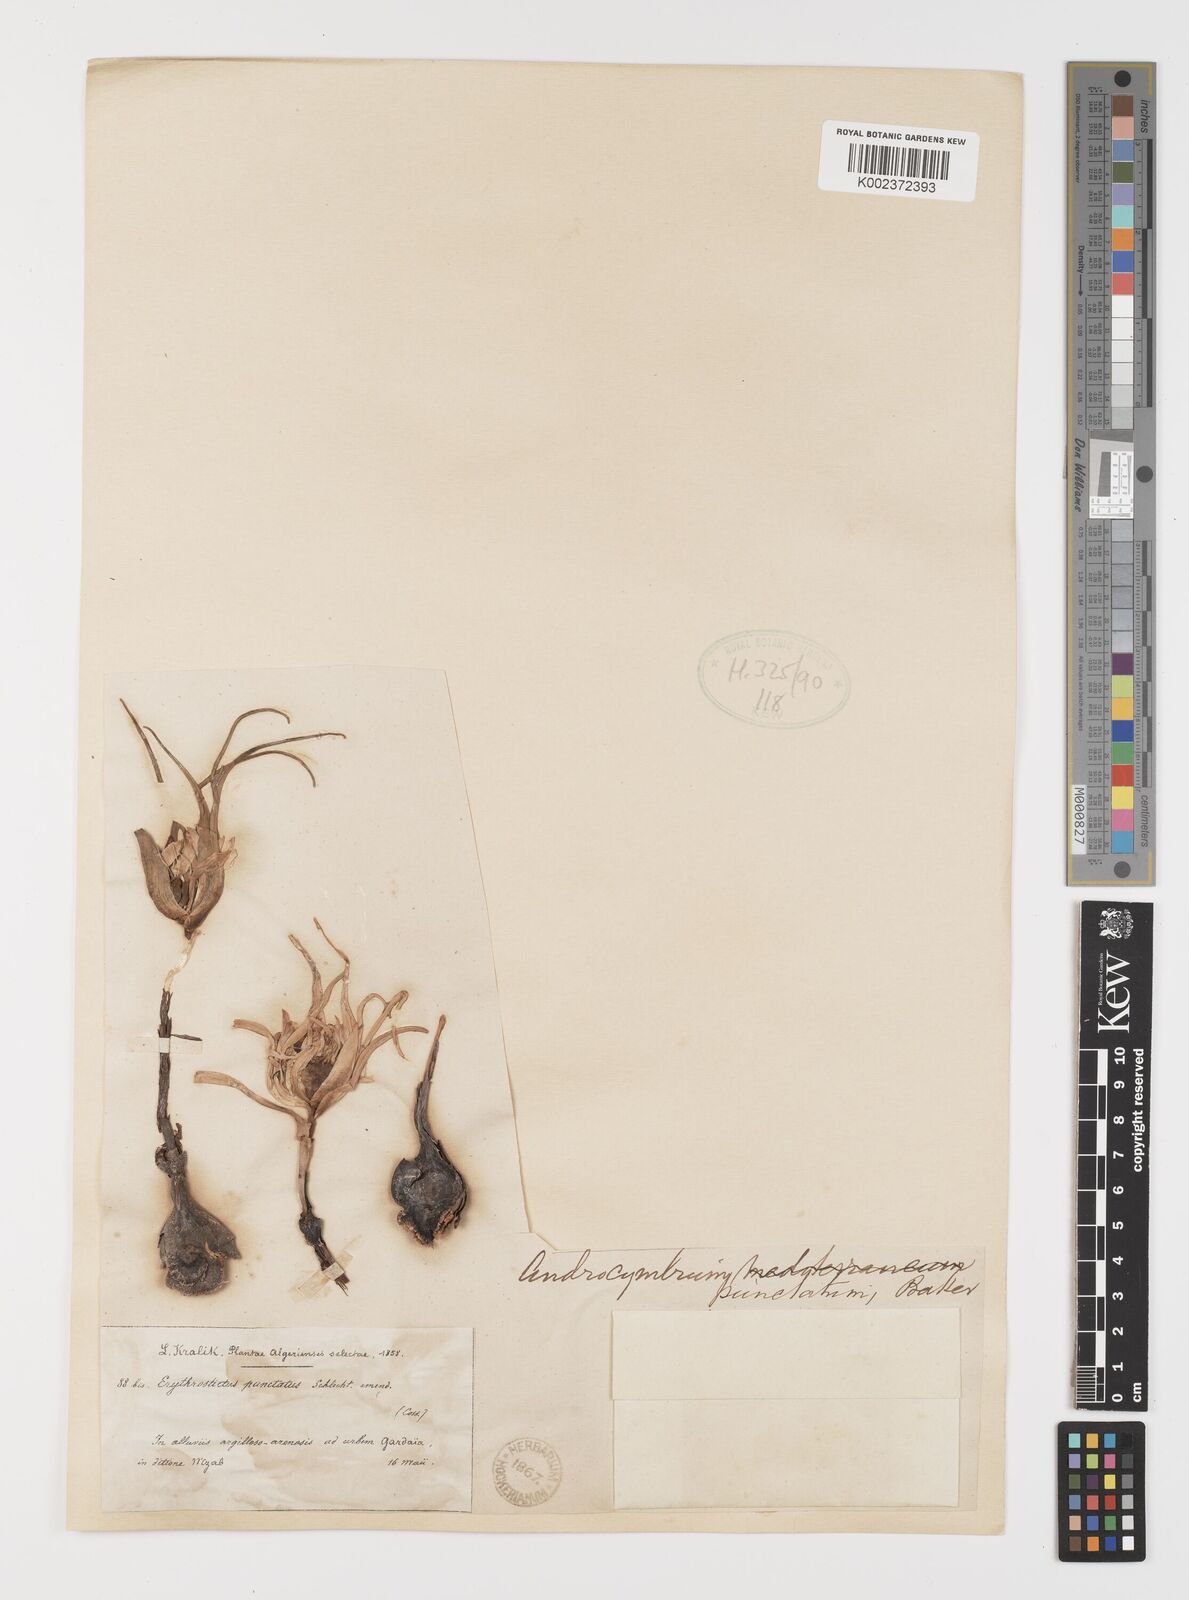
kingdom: Plantae
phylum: Tracheophyta
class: Liliopsida
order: Liliales
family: Colchicaceae
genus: Colchicum
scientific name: Colchicum gramineum
